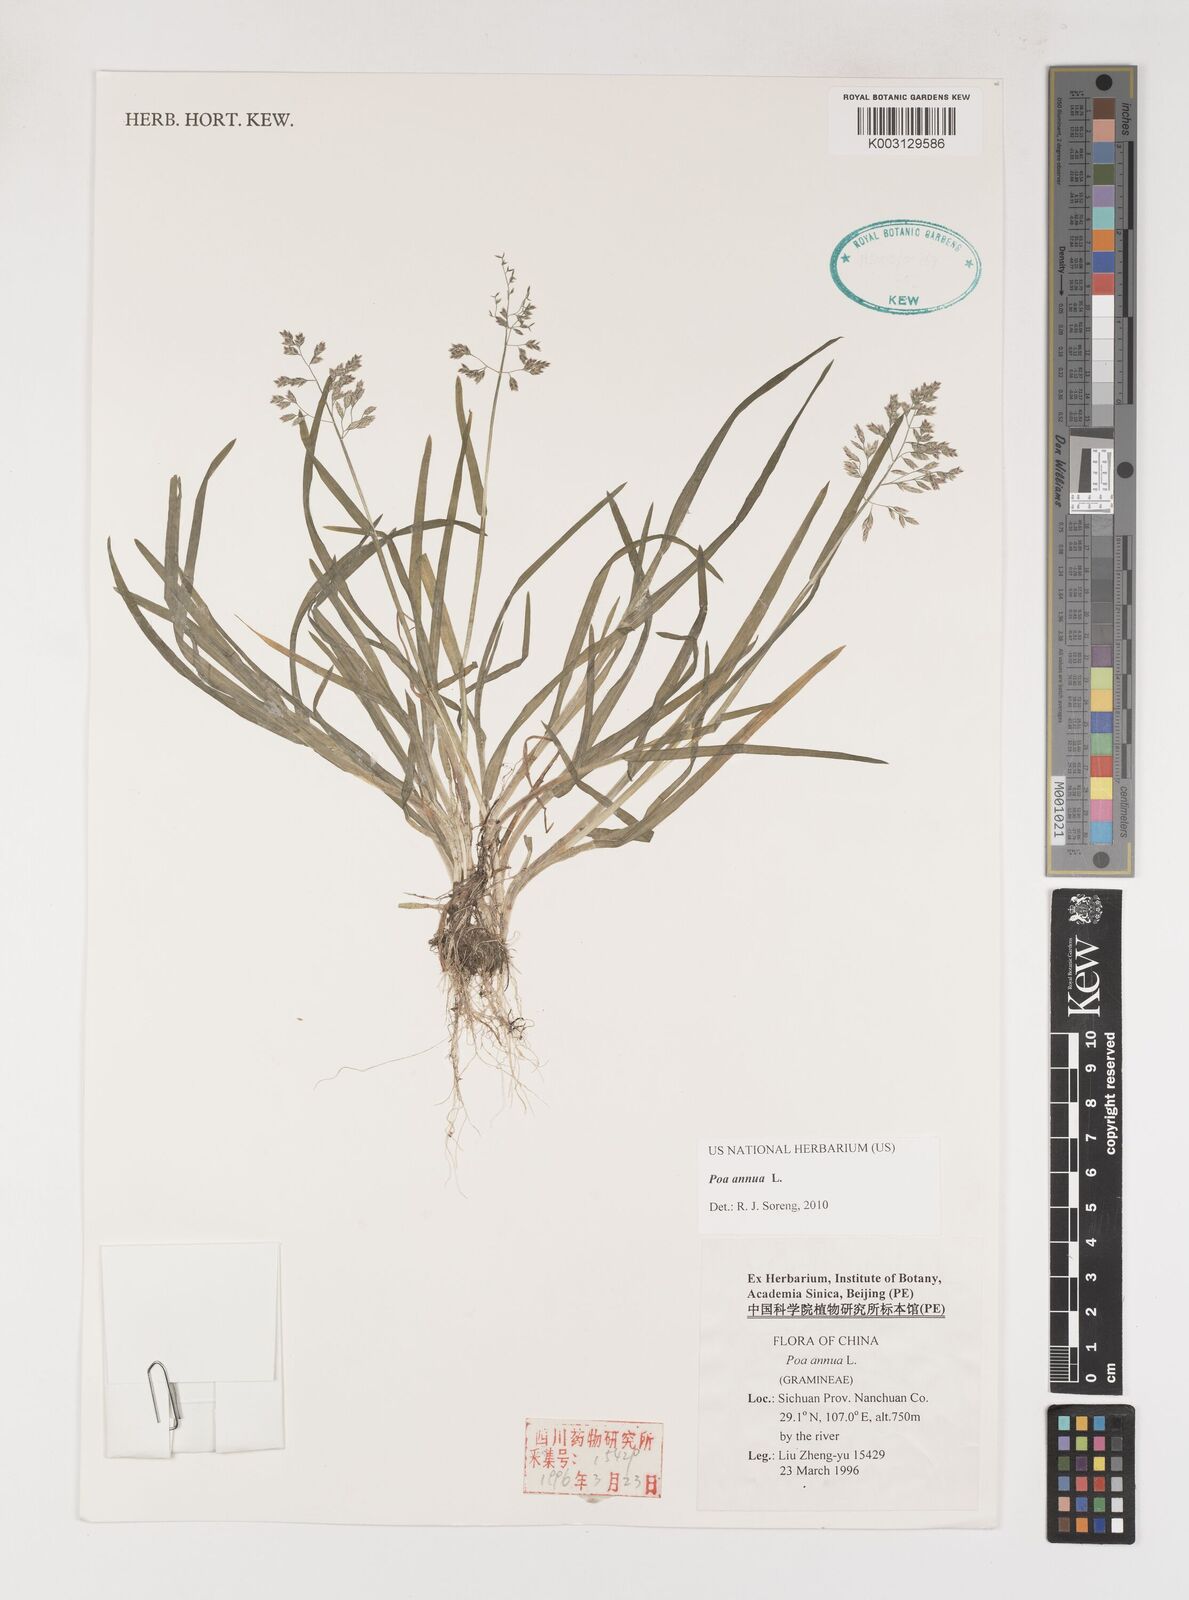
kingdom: Plantae
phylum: Tracheophyta
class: Liliopsida
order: Poales
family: Poaceae
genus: Poa
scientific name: Poa annua
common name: Annual bluegrass
